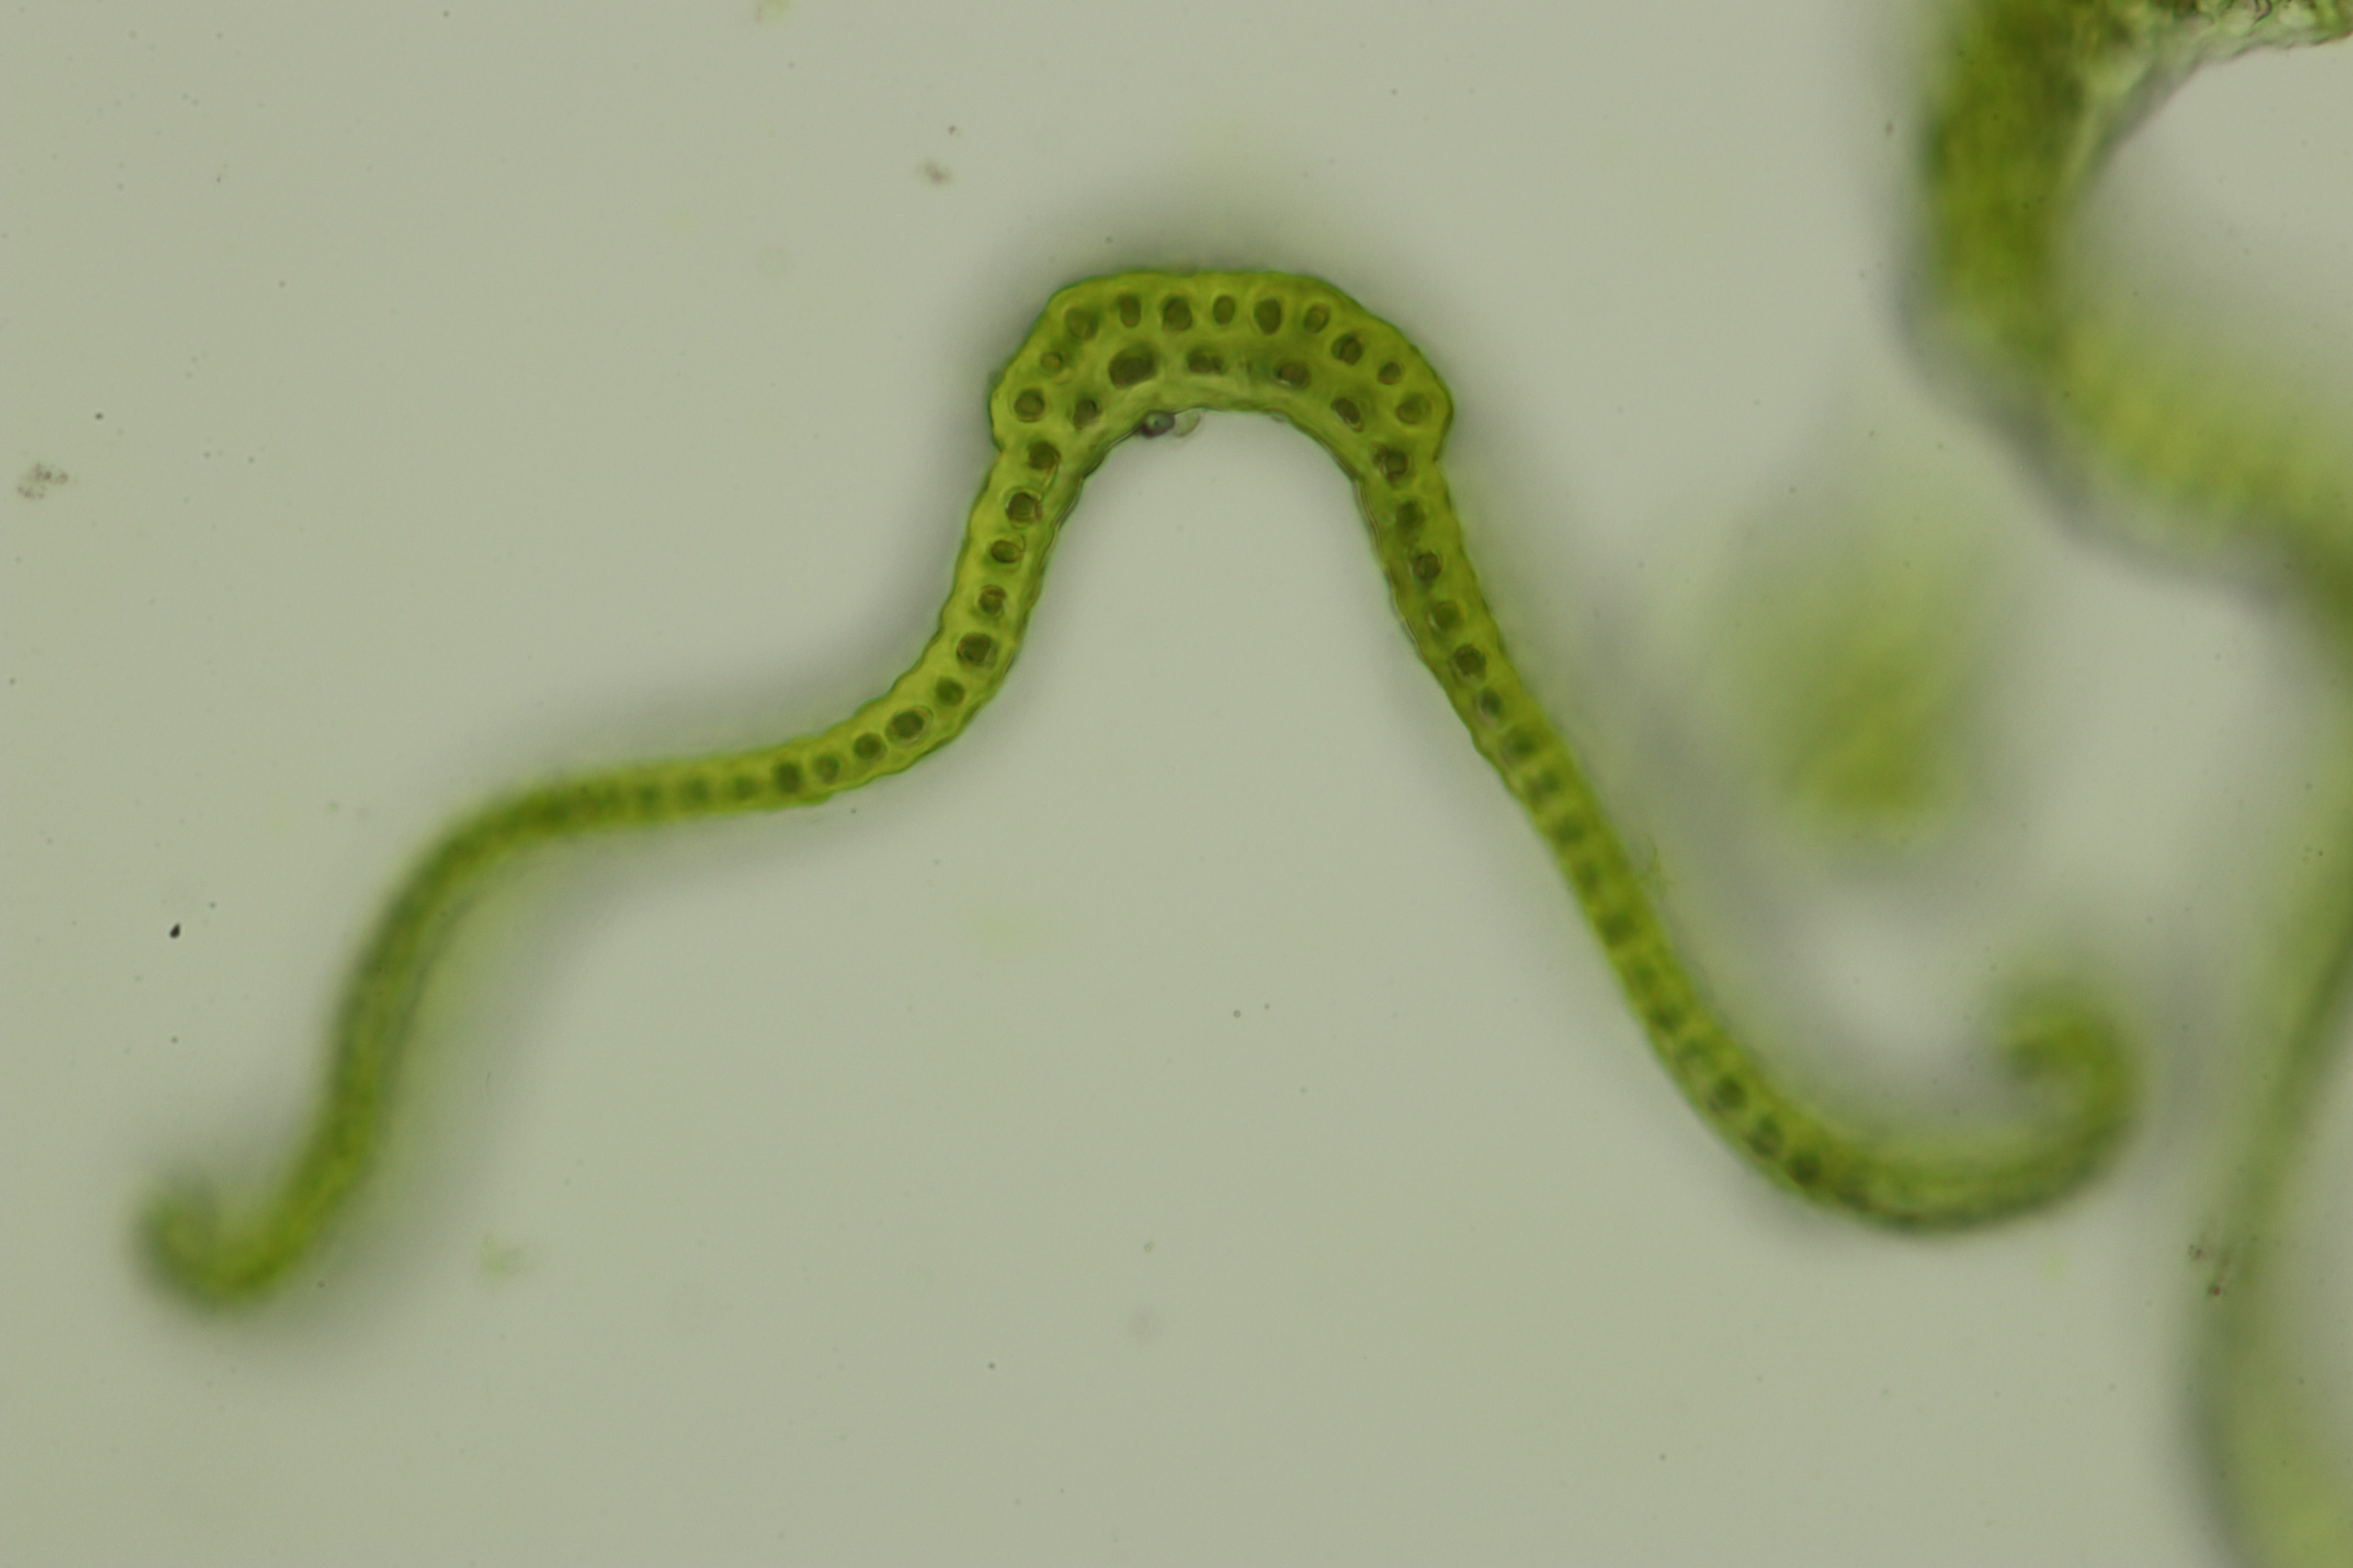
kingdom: Plantae
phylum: Bryophyta
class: Bryopsida
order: Grimmiales
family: Grimmiaceae
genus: Bucklandiella
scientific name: Bucklandiella heterosticha
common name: Sten-børstemos
